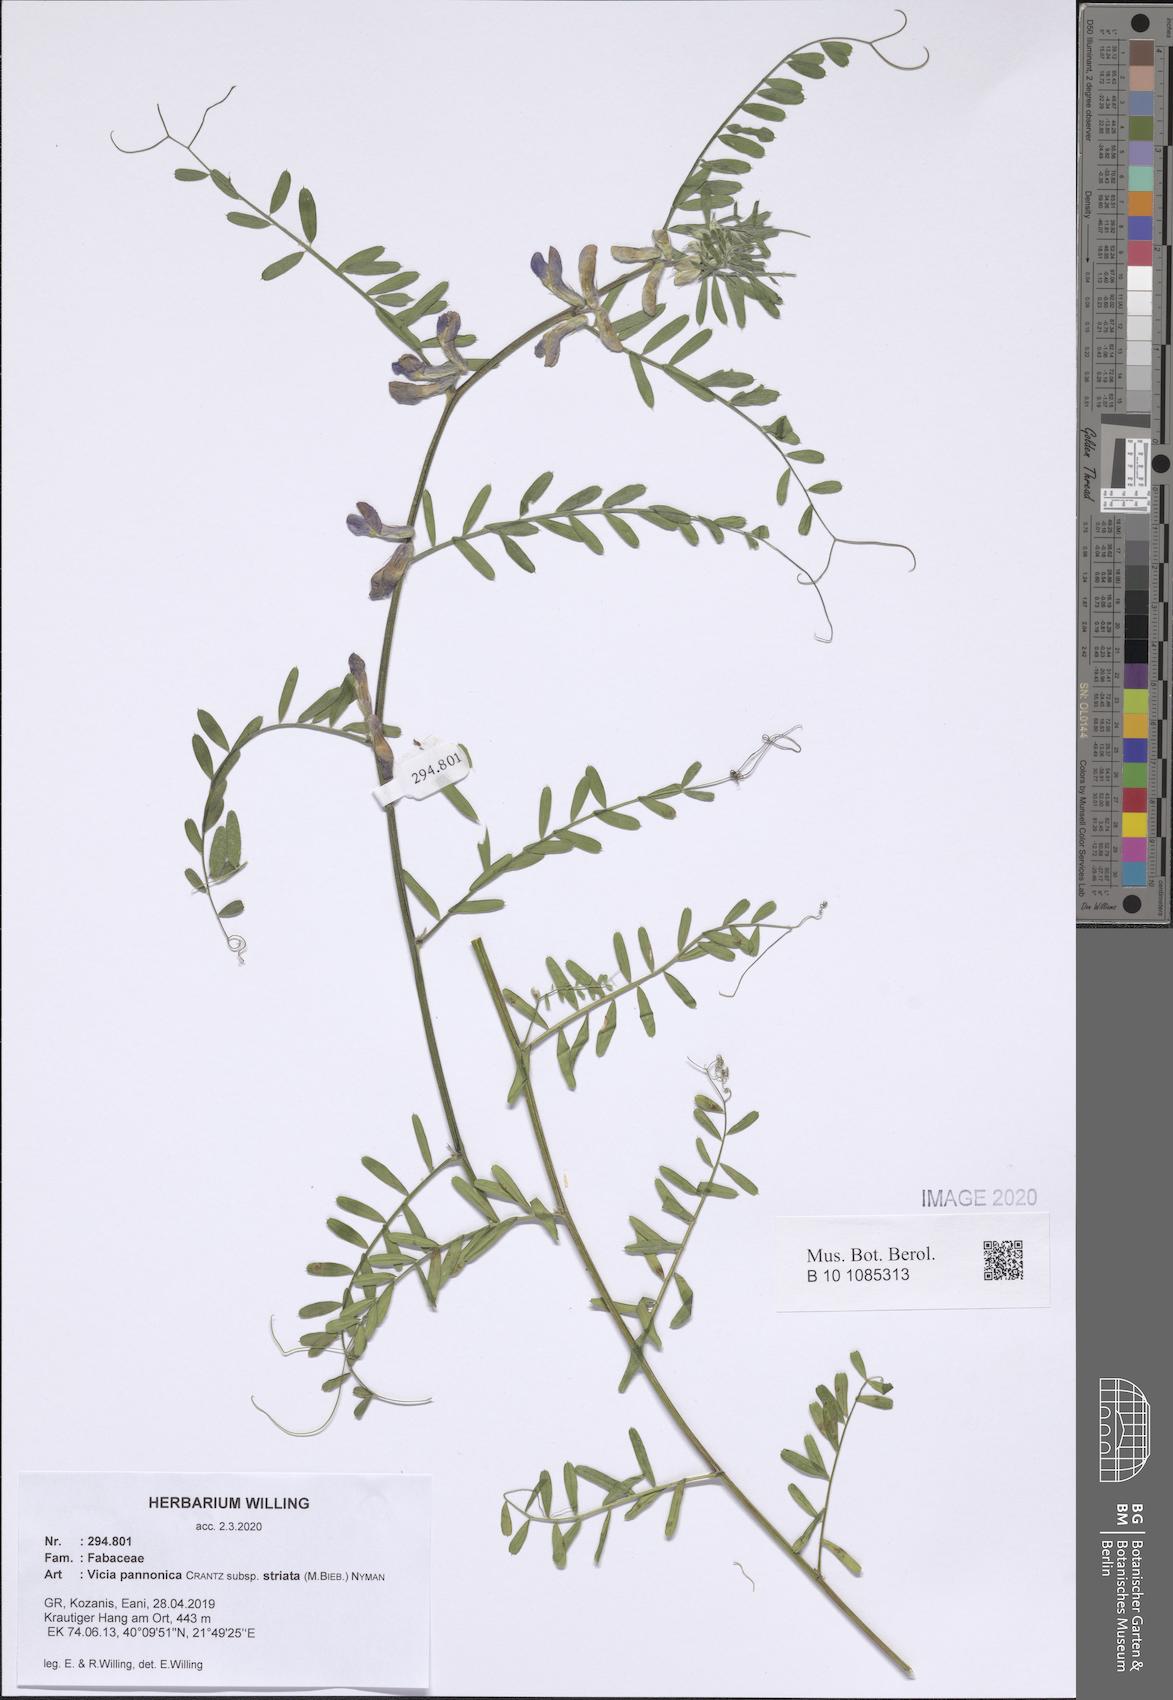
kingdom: Plantae
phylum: Tracheophyta
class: Magnoliopsida
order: Fabales
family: Fabaceae
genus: Vicia
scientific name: Vicia pannonica
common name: Hungarian vetch
